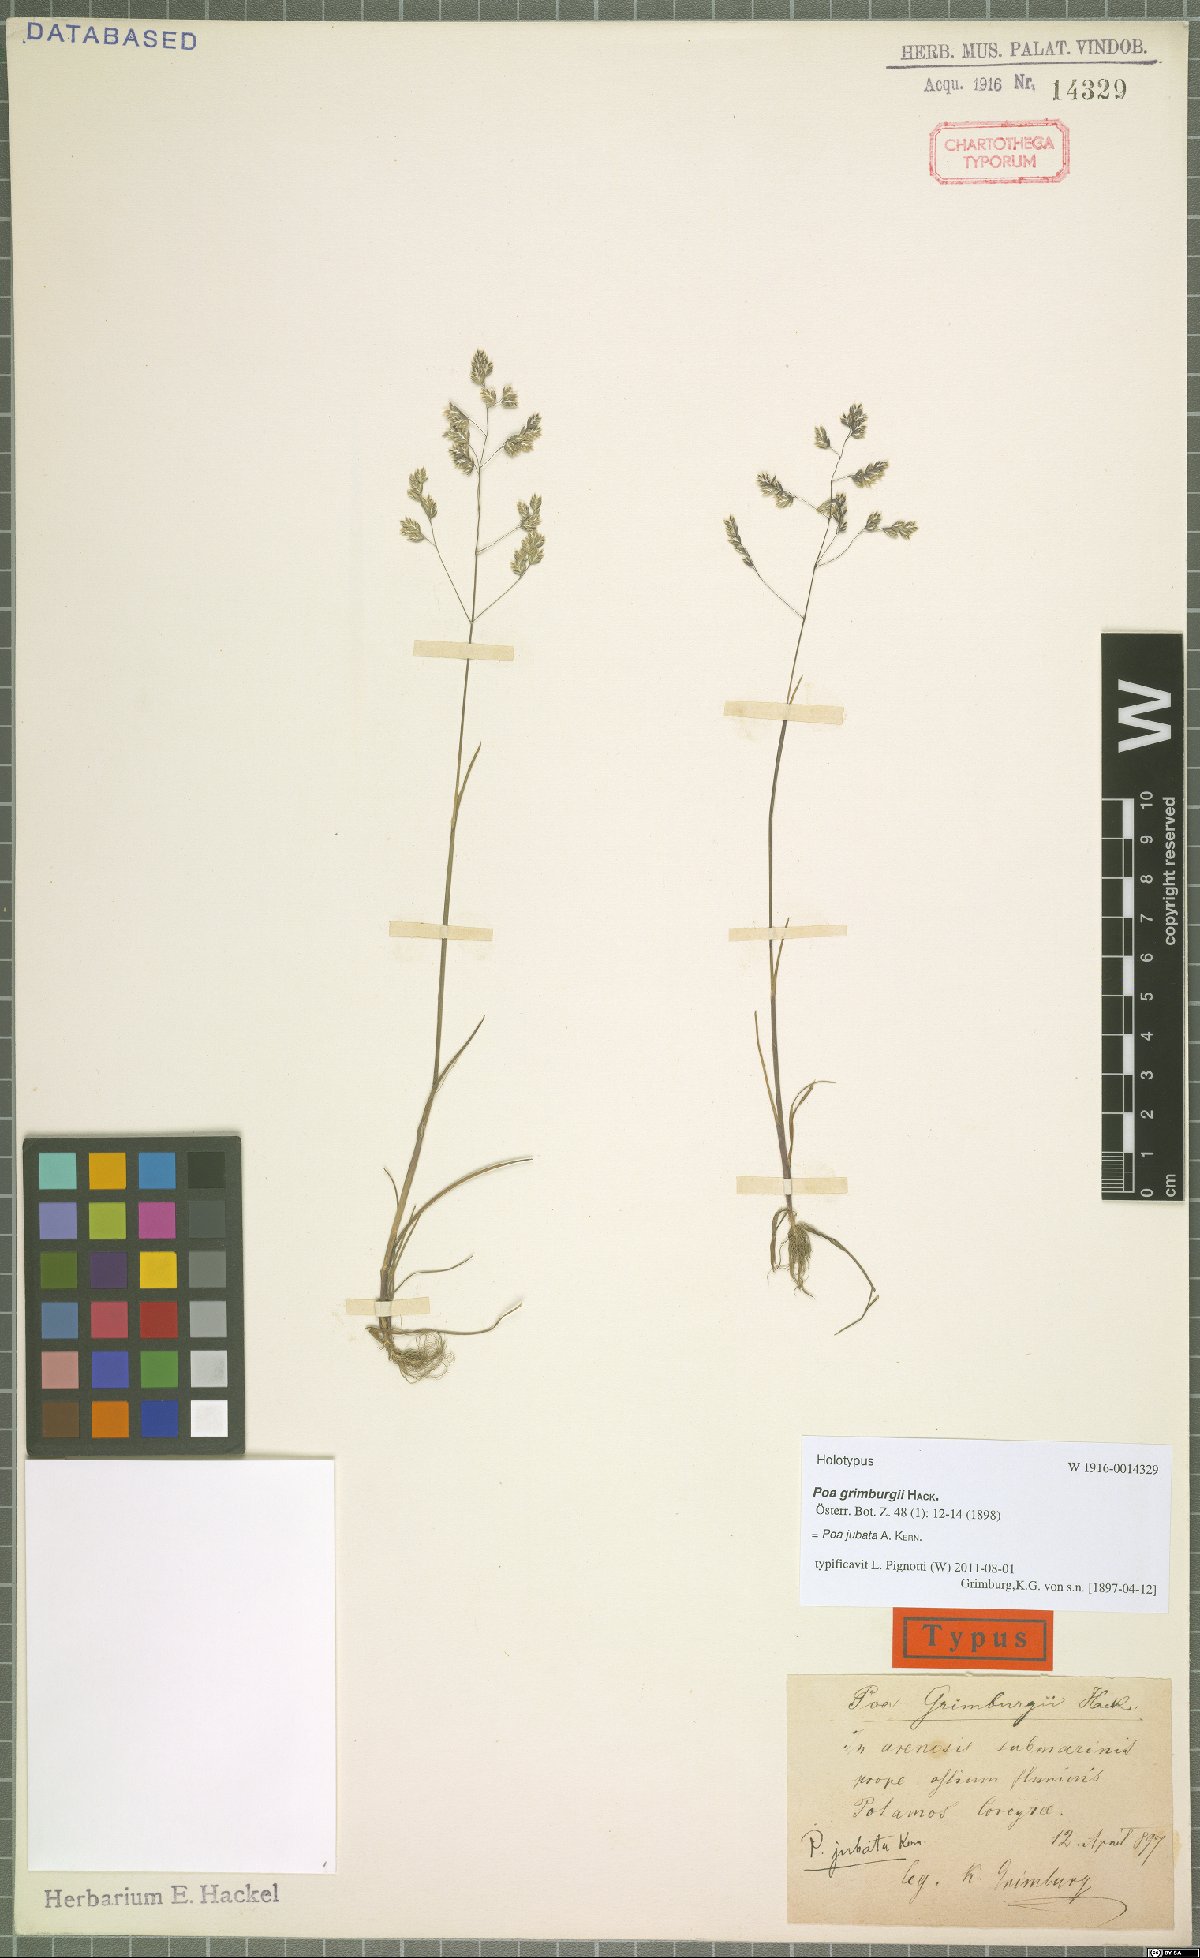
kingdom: Plantae
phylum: Tracheophyta
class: Liliopsida
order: Poales
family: Poaceae
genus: Poa
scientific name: Poa jubata
